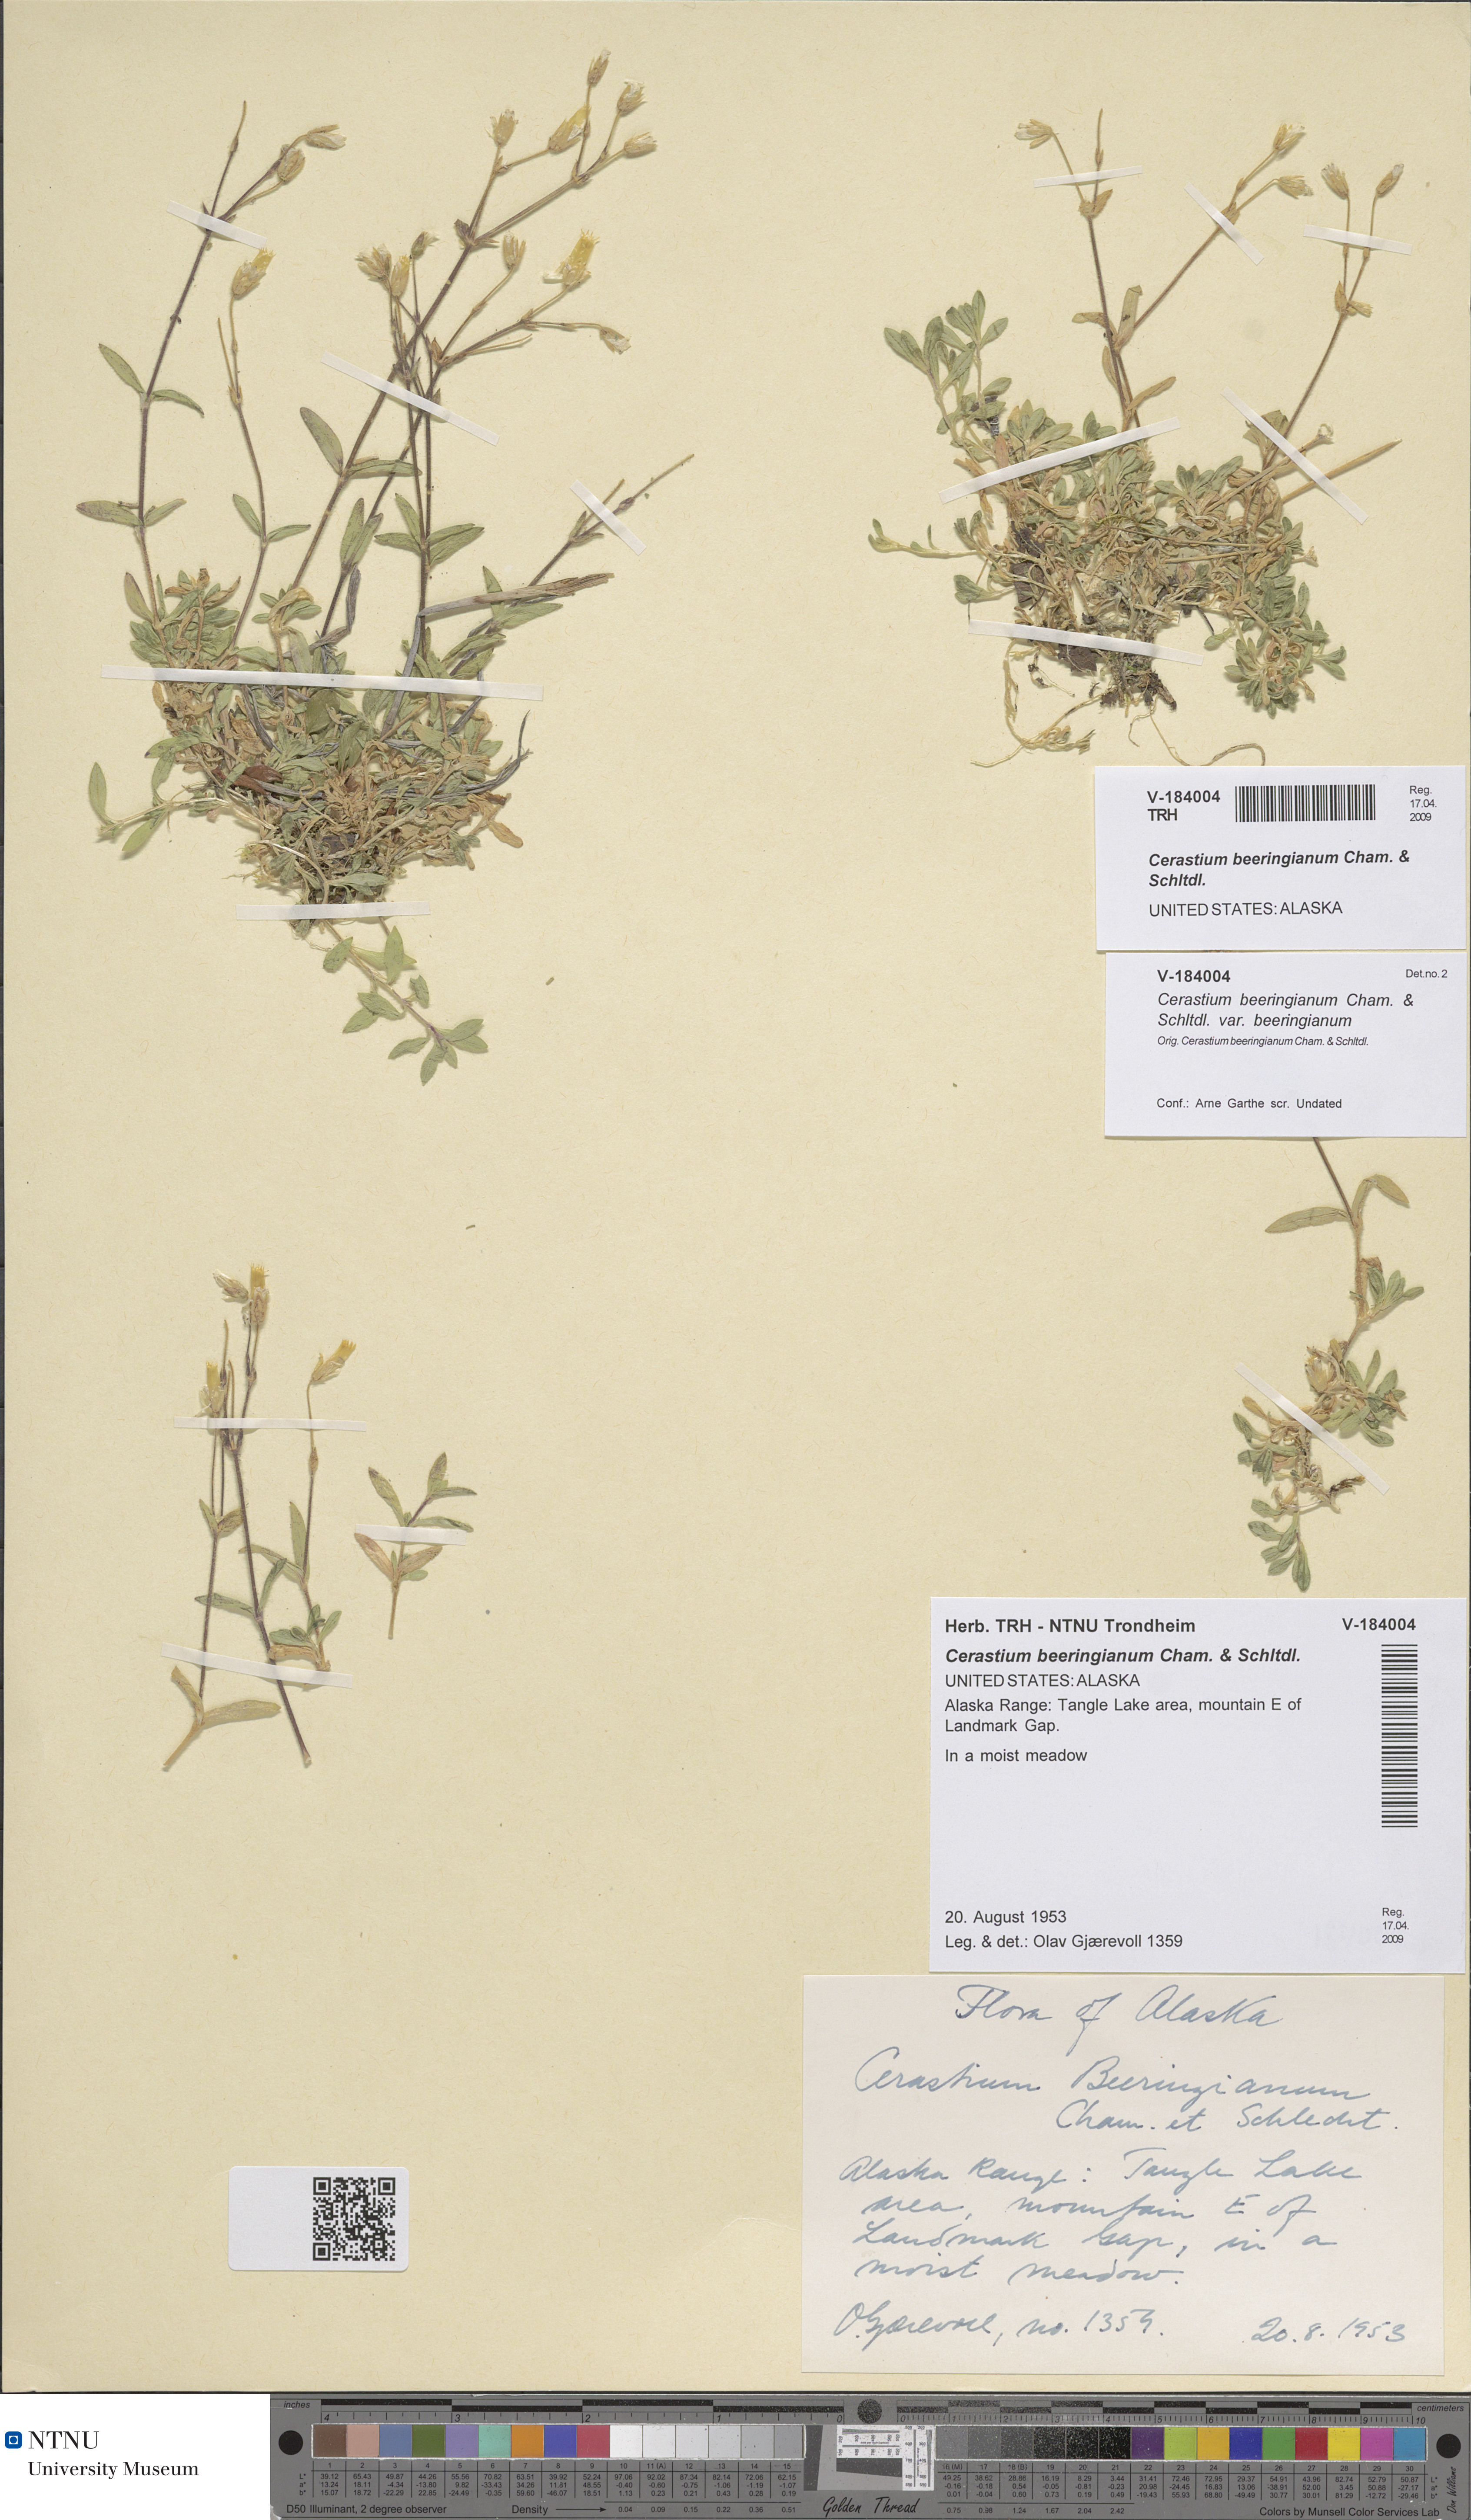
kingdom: Plantae
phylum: Tracheophyta
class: Magnoliopsida
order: Caryophyllales
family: Caryophyllaceae
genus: Cerastium
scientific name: Cerastium beeringianum
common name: Bering mouse-ear chickweed
